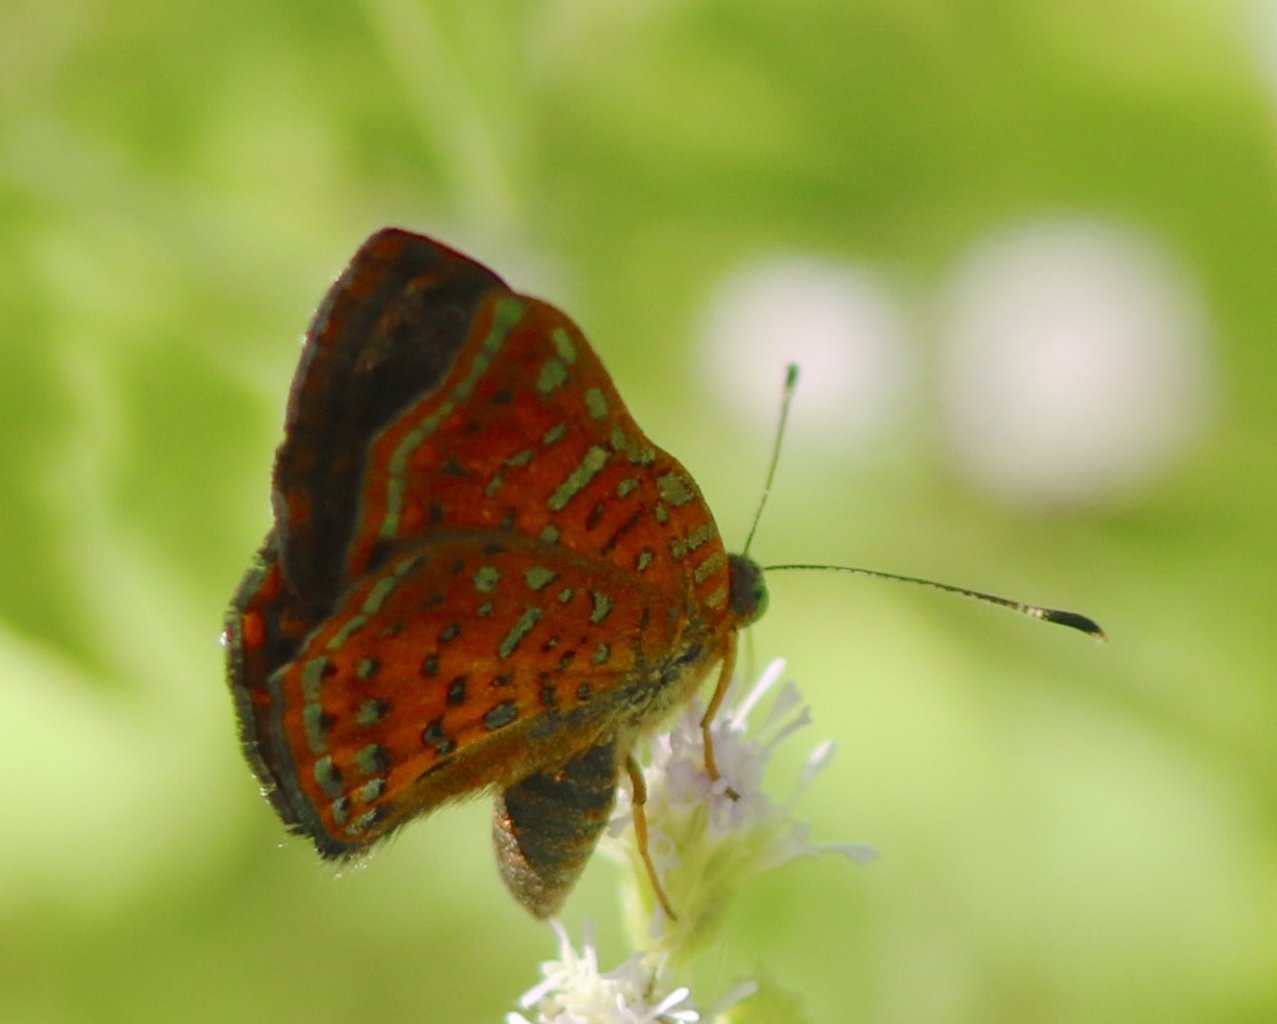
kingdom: Animalia
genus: Caria
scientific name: Caria ino
